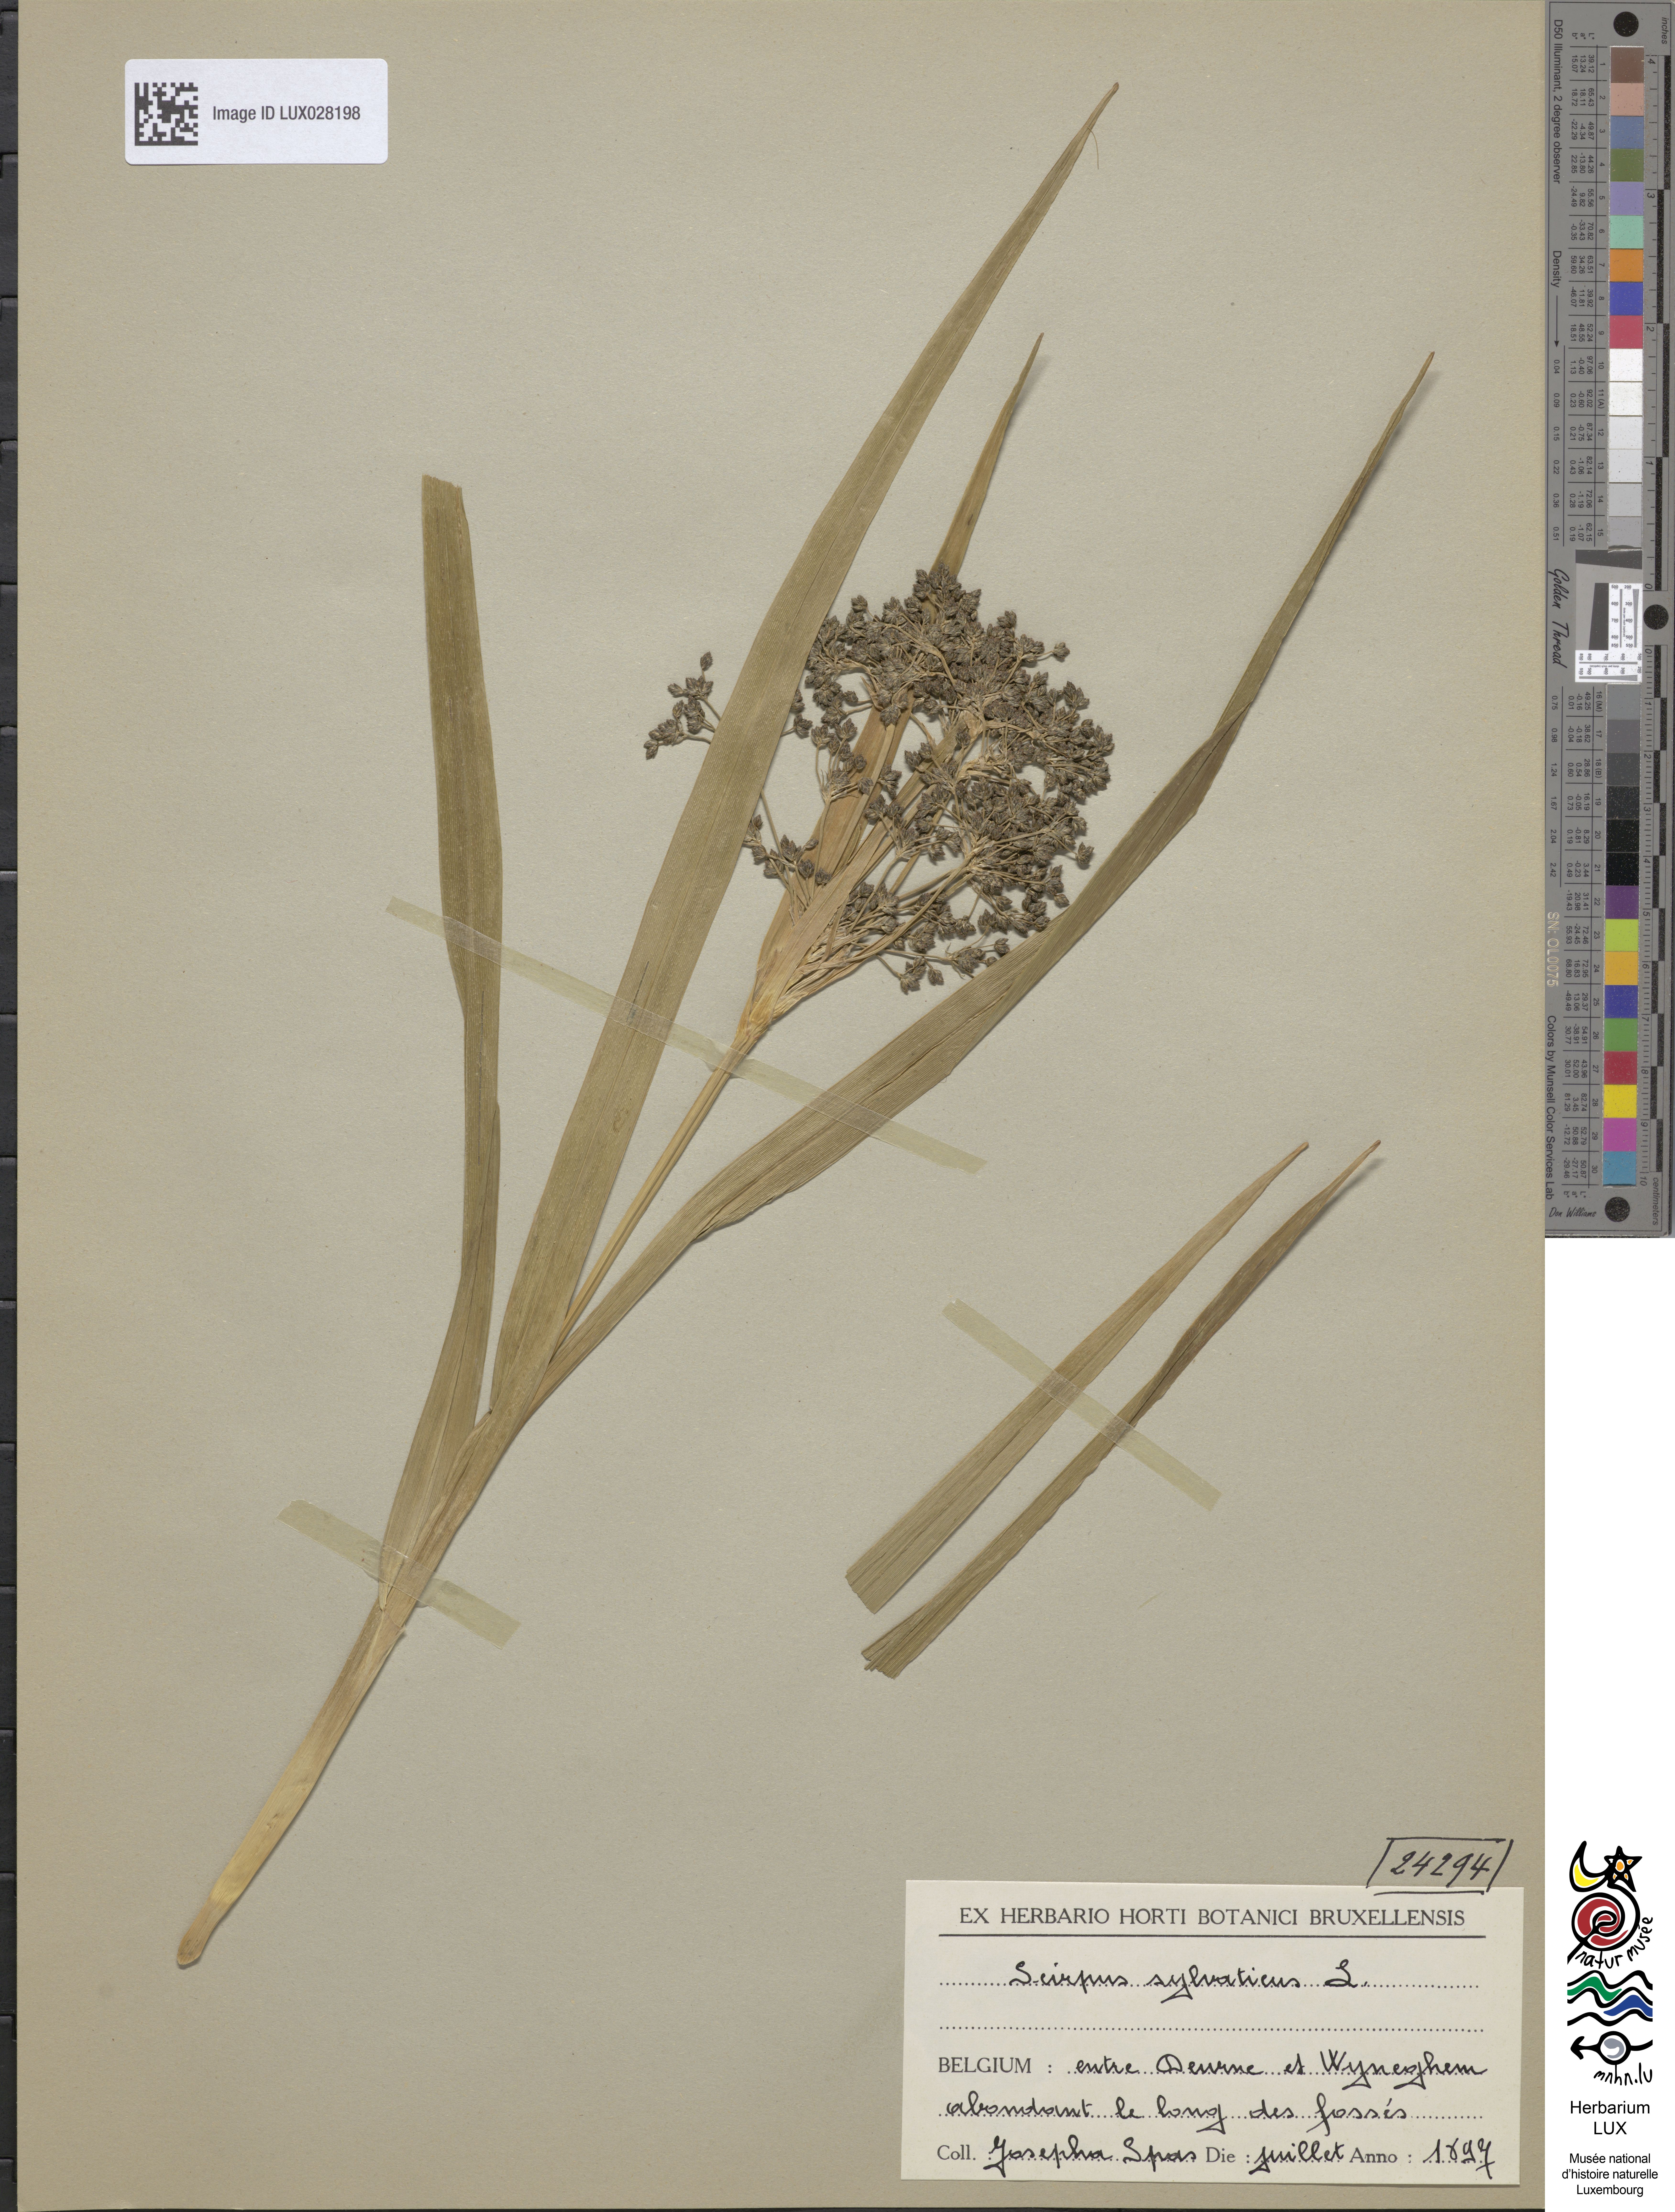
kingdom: Plantae
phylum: Tracheophyta
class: Liliopsida
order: Poales
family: Cyperaceae
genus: Scirpus
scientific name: Scirpus sylvaticus
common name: Wood club-rush
